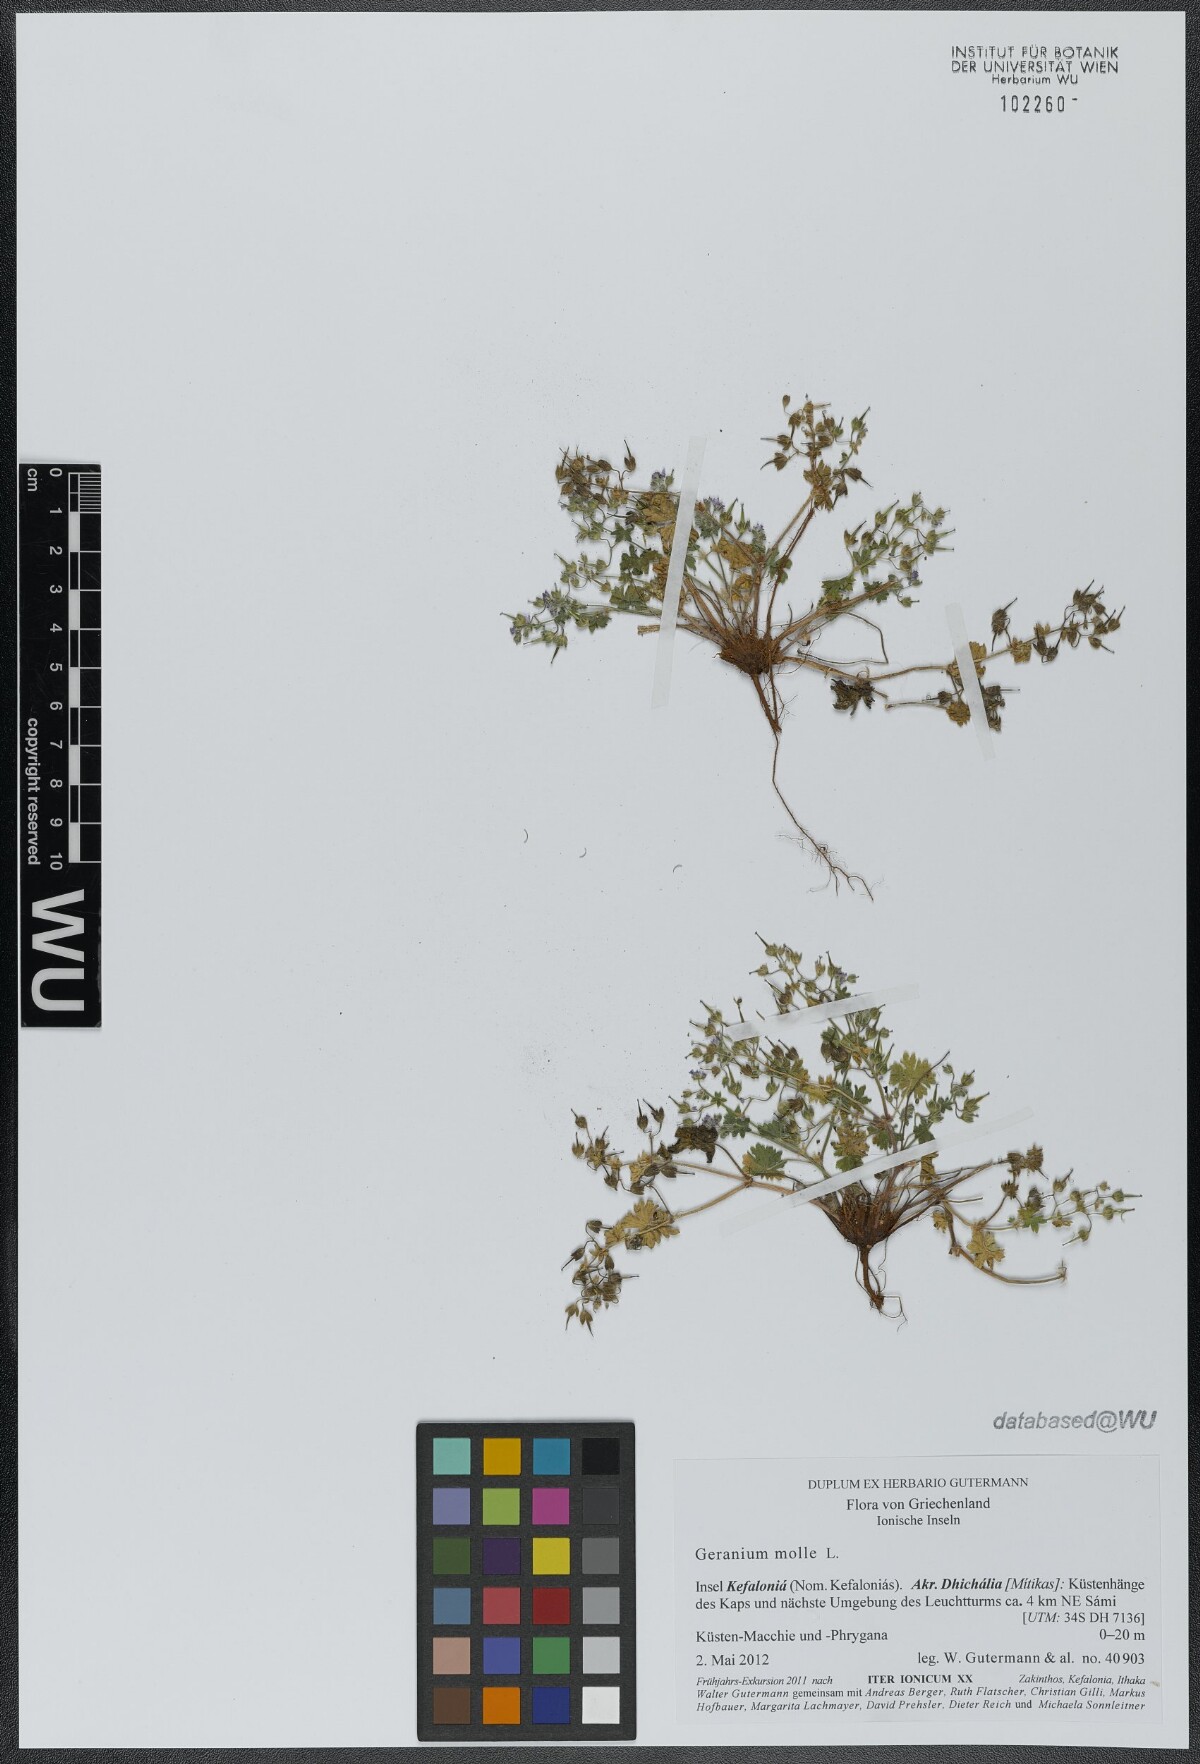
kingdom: Plantae
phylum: Tracheophyta
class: Magnoliopsida
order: Geraniales
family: Geraniaceae
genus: Geranium
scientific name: Geranium molle
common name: Dove's-foot crane's-bill
